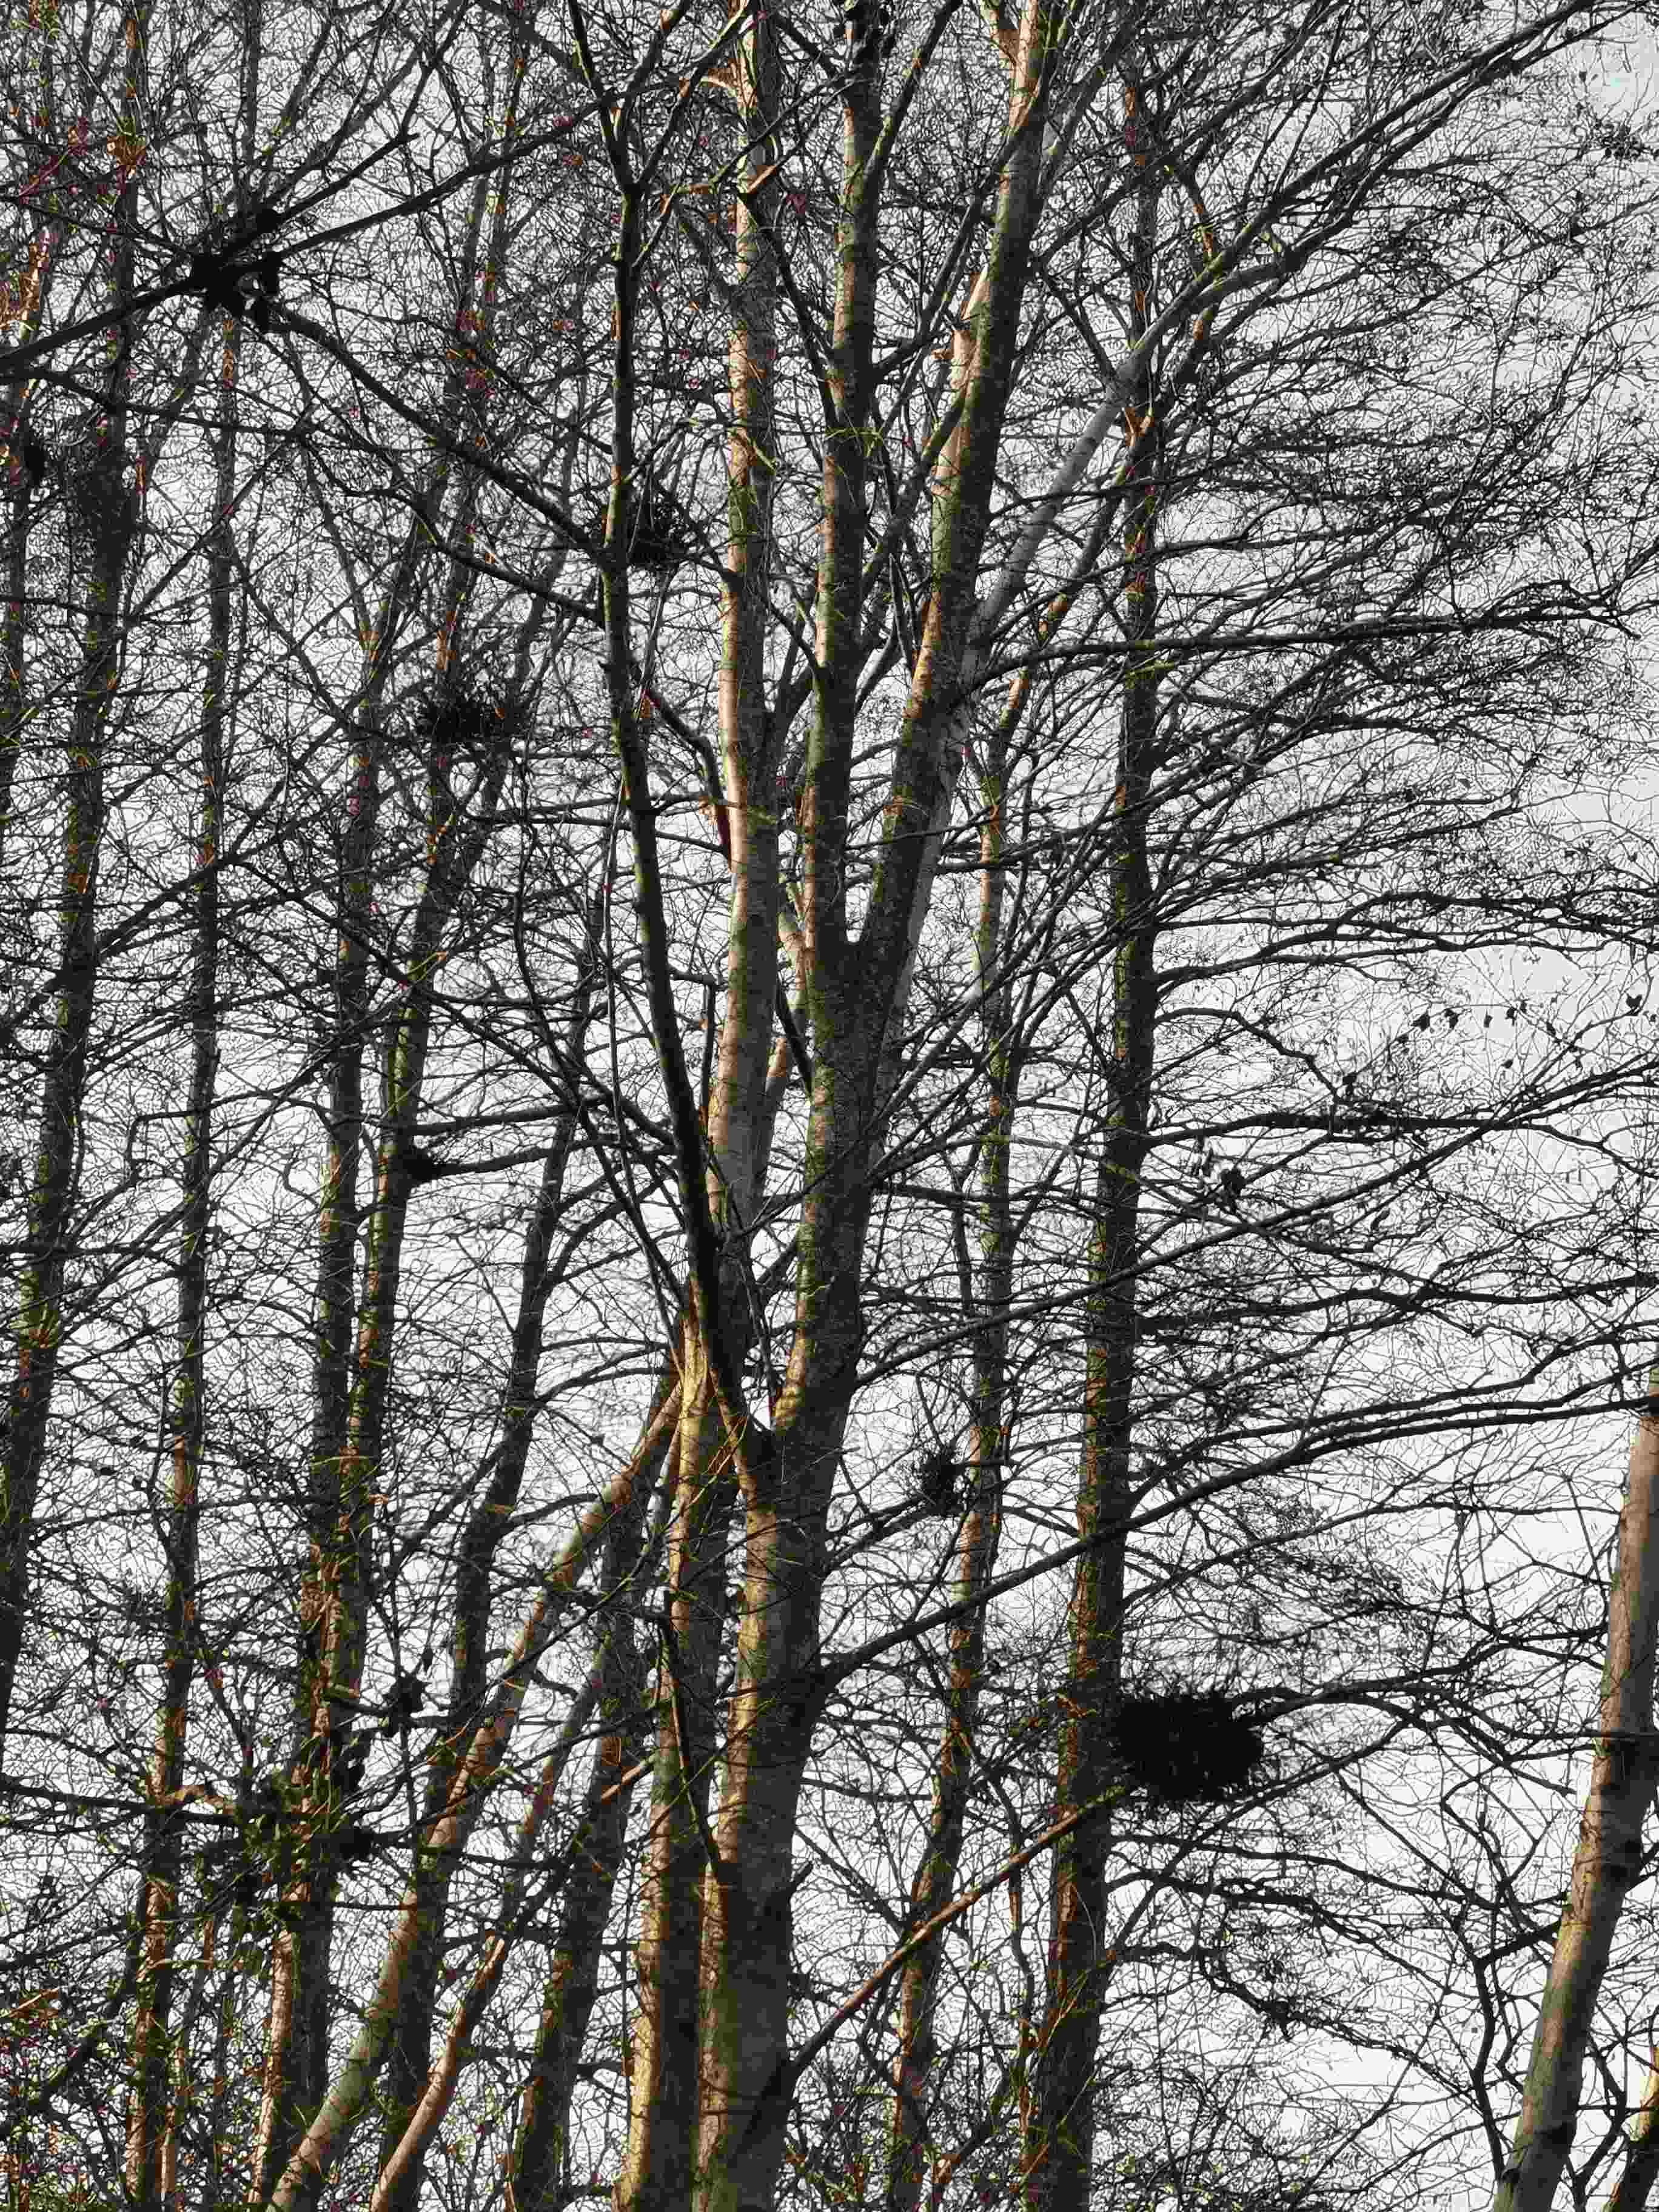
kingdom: Fungi
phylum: Ascomycota
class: Taphrinomycetes
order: Taphrinales
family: Taphrinaceae
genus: Taphrina
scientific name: Taphrina betulina
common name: hekse-sækdug
